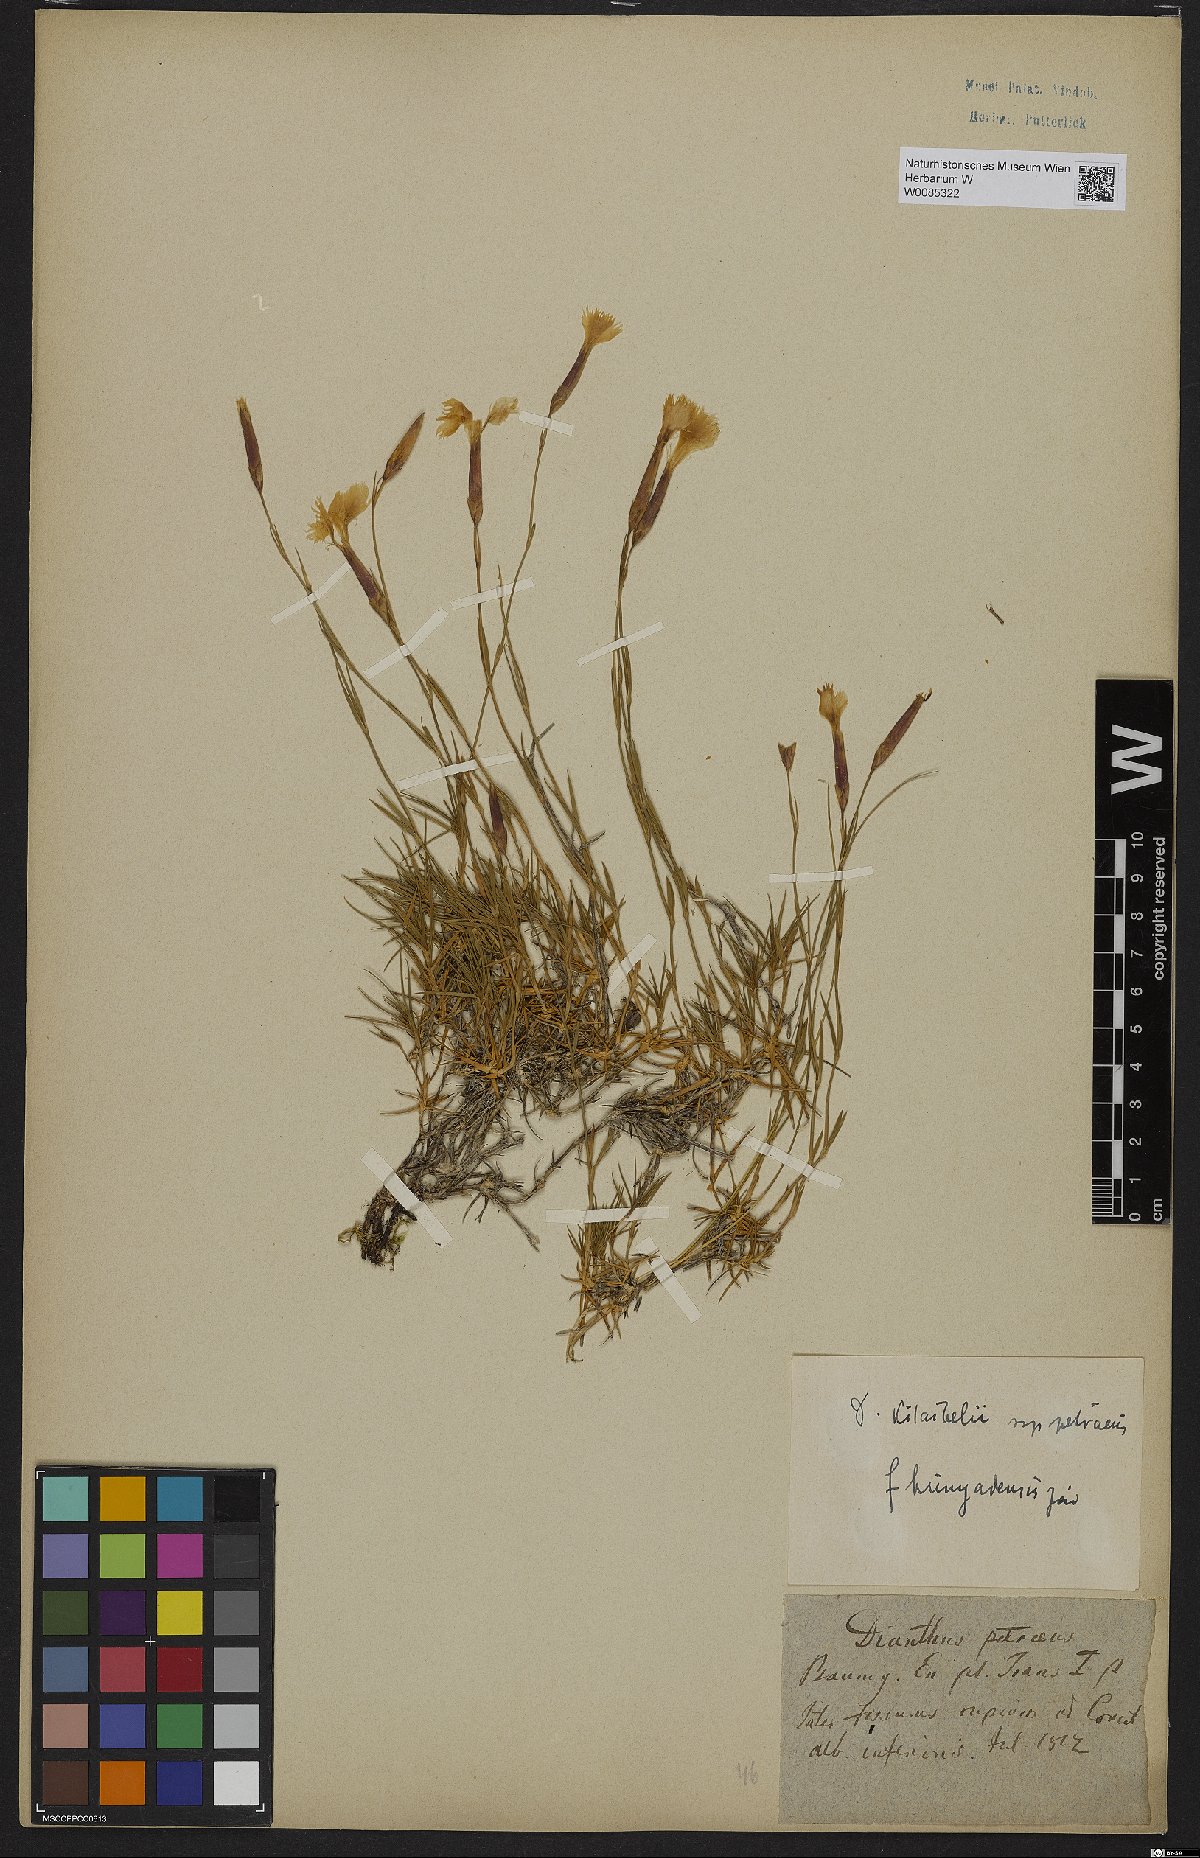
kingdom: Plantae
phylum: Tracheophyta
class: Magnoliopsida
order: Caryophyllales
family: Caryophyllaceae
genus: Dianthus
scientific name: Dianthus petraeus
